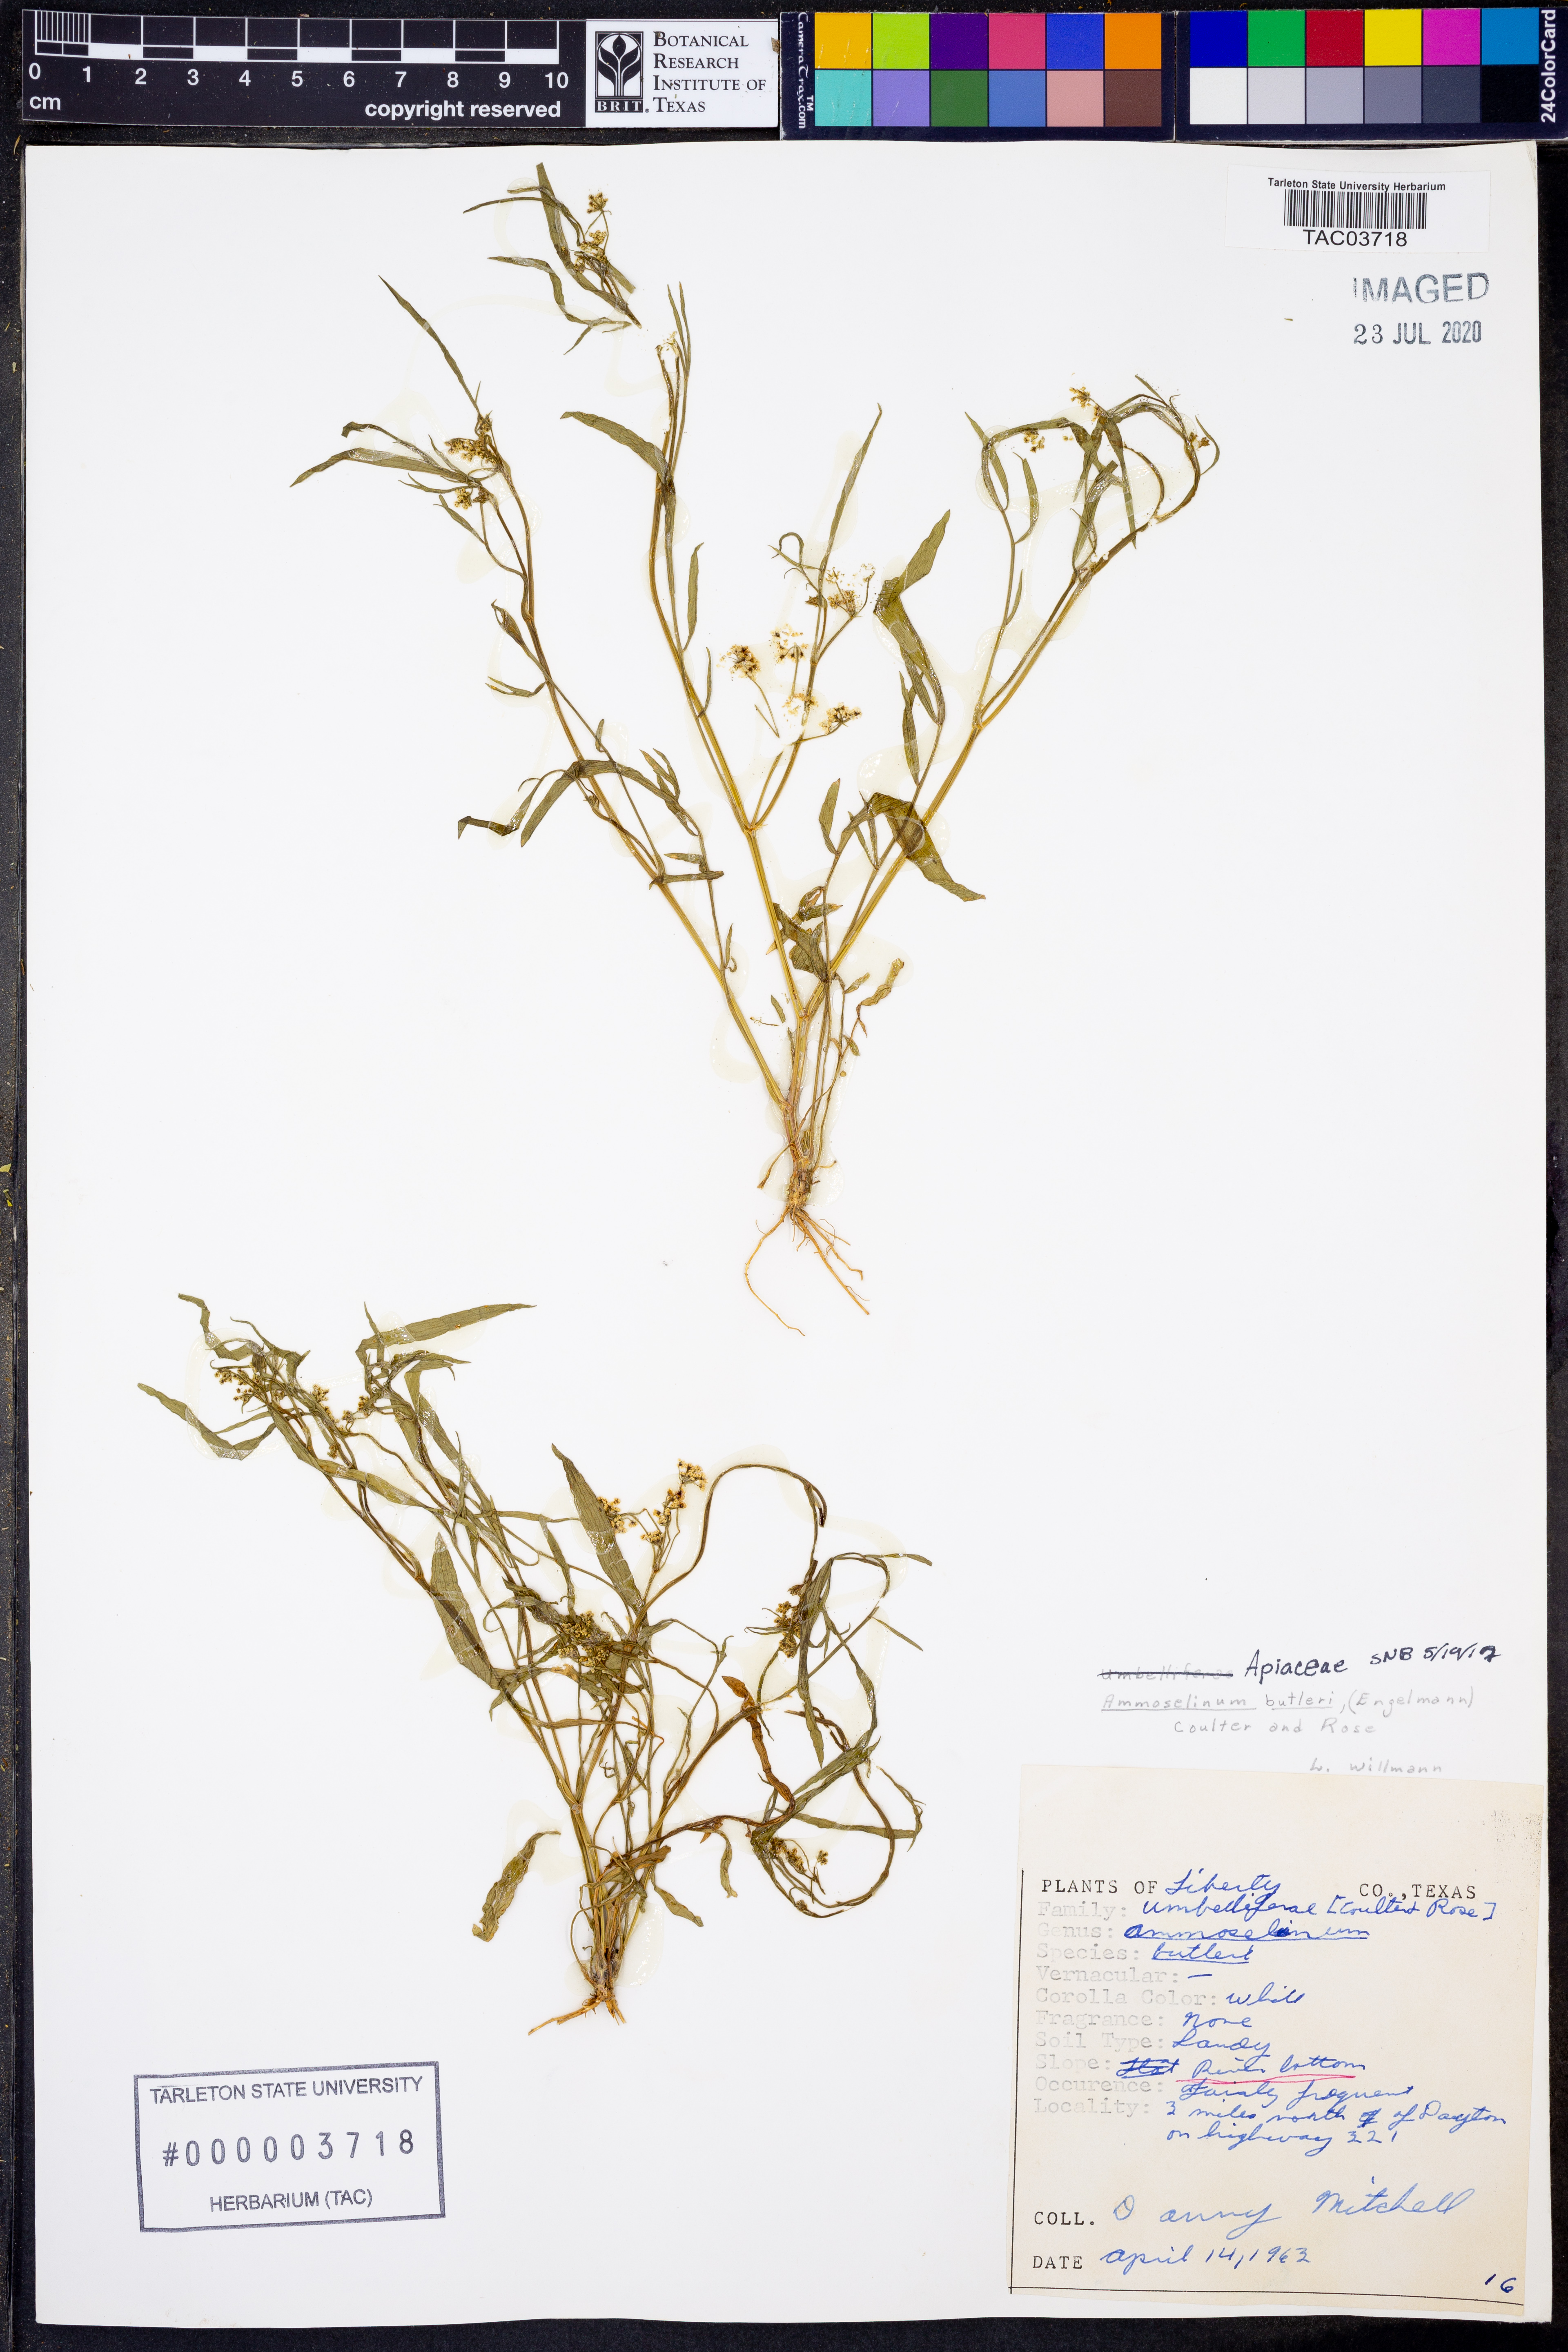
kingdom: Plantae
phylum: Tracheophyta
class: Magnoliopsida
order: Apiales
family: Apiaceae
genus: Ammoselinum
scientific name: Ammoselinum butleri
